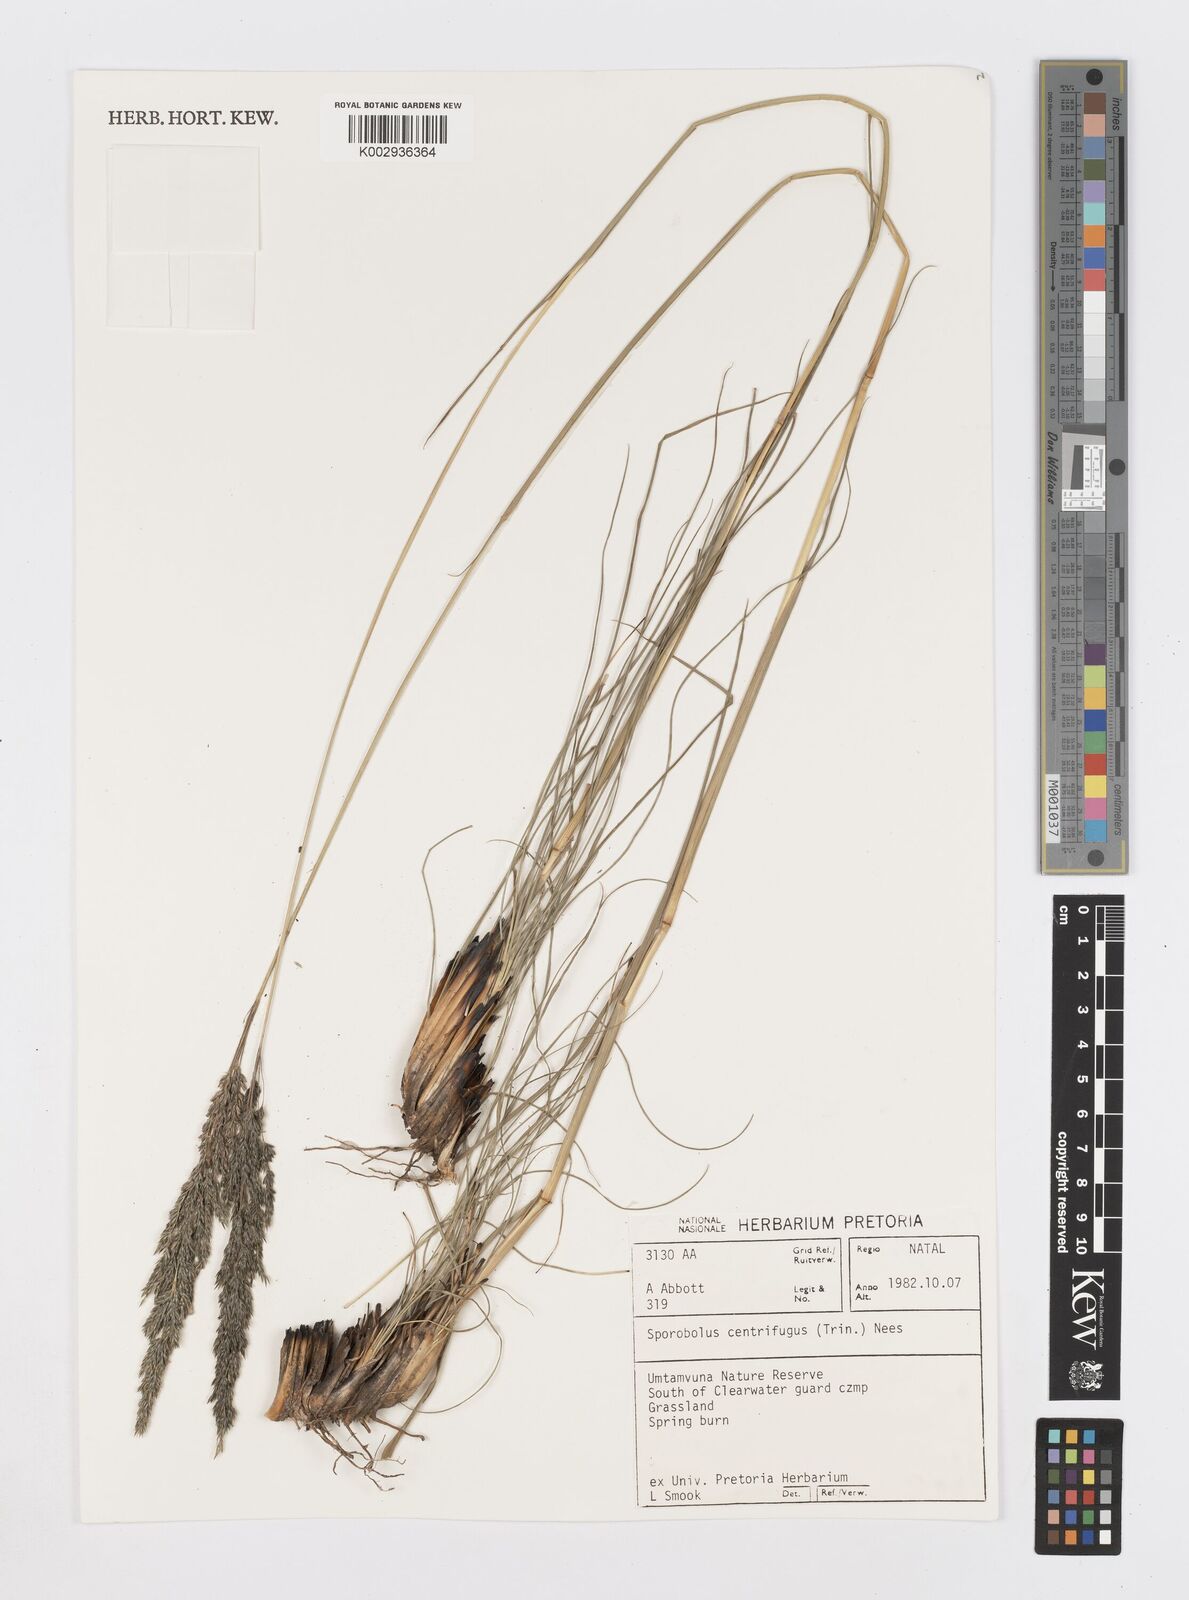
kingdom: Plantae
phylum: Tracheophyta
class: Liliopsida
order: Poales
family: Poaceae
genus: Sporobolus
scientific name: Sporobolus centrifugus
